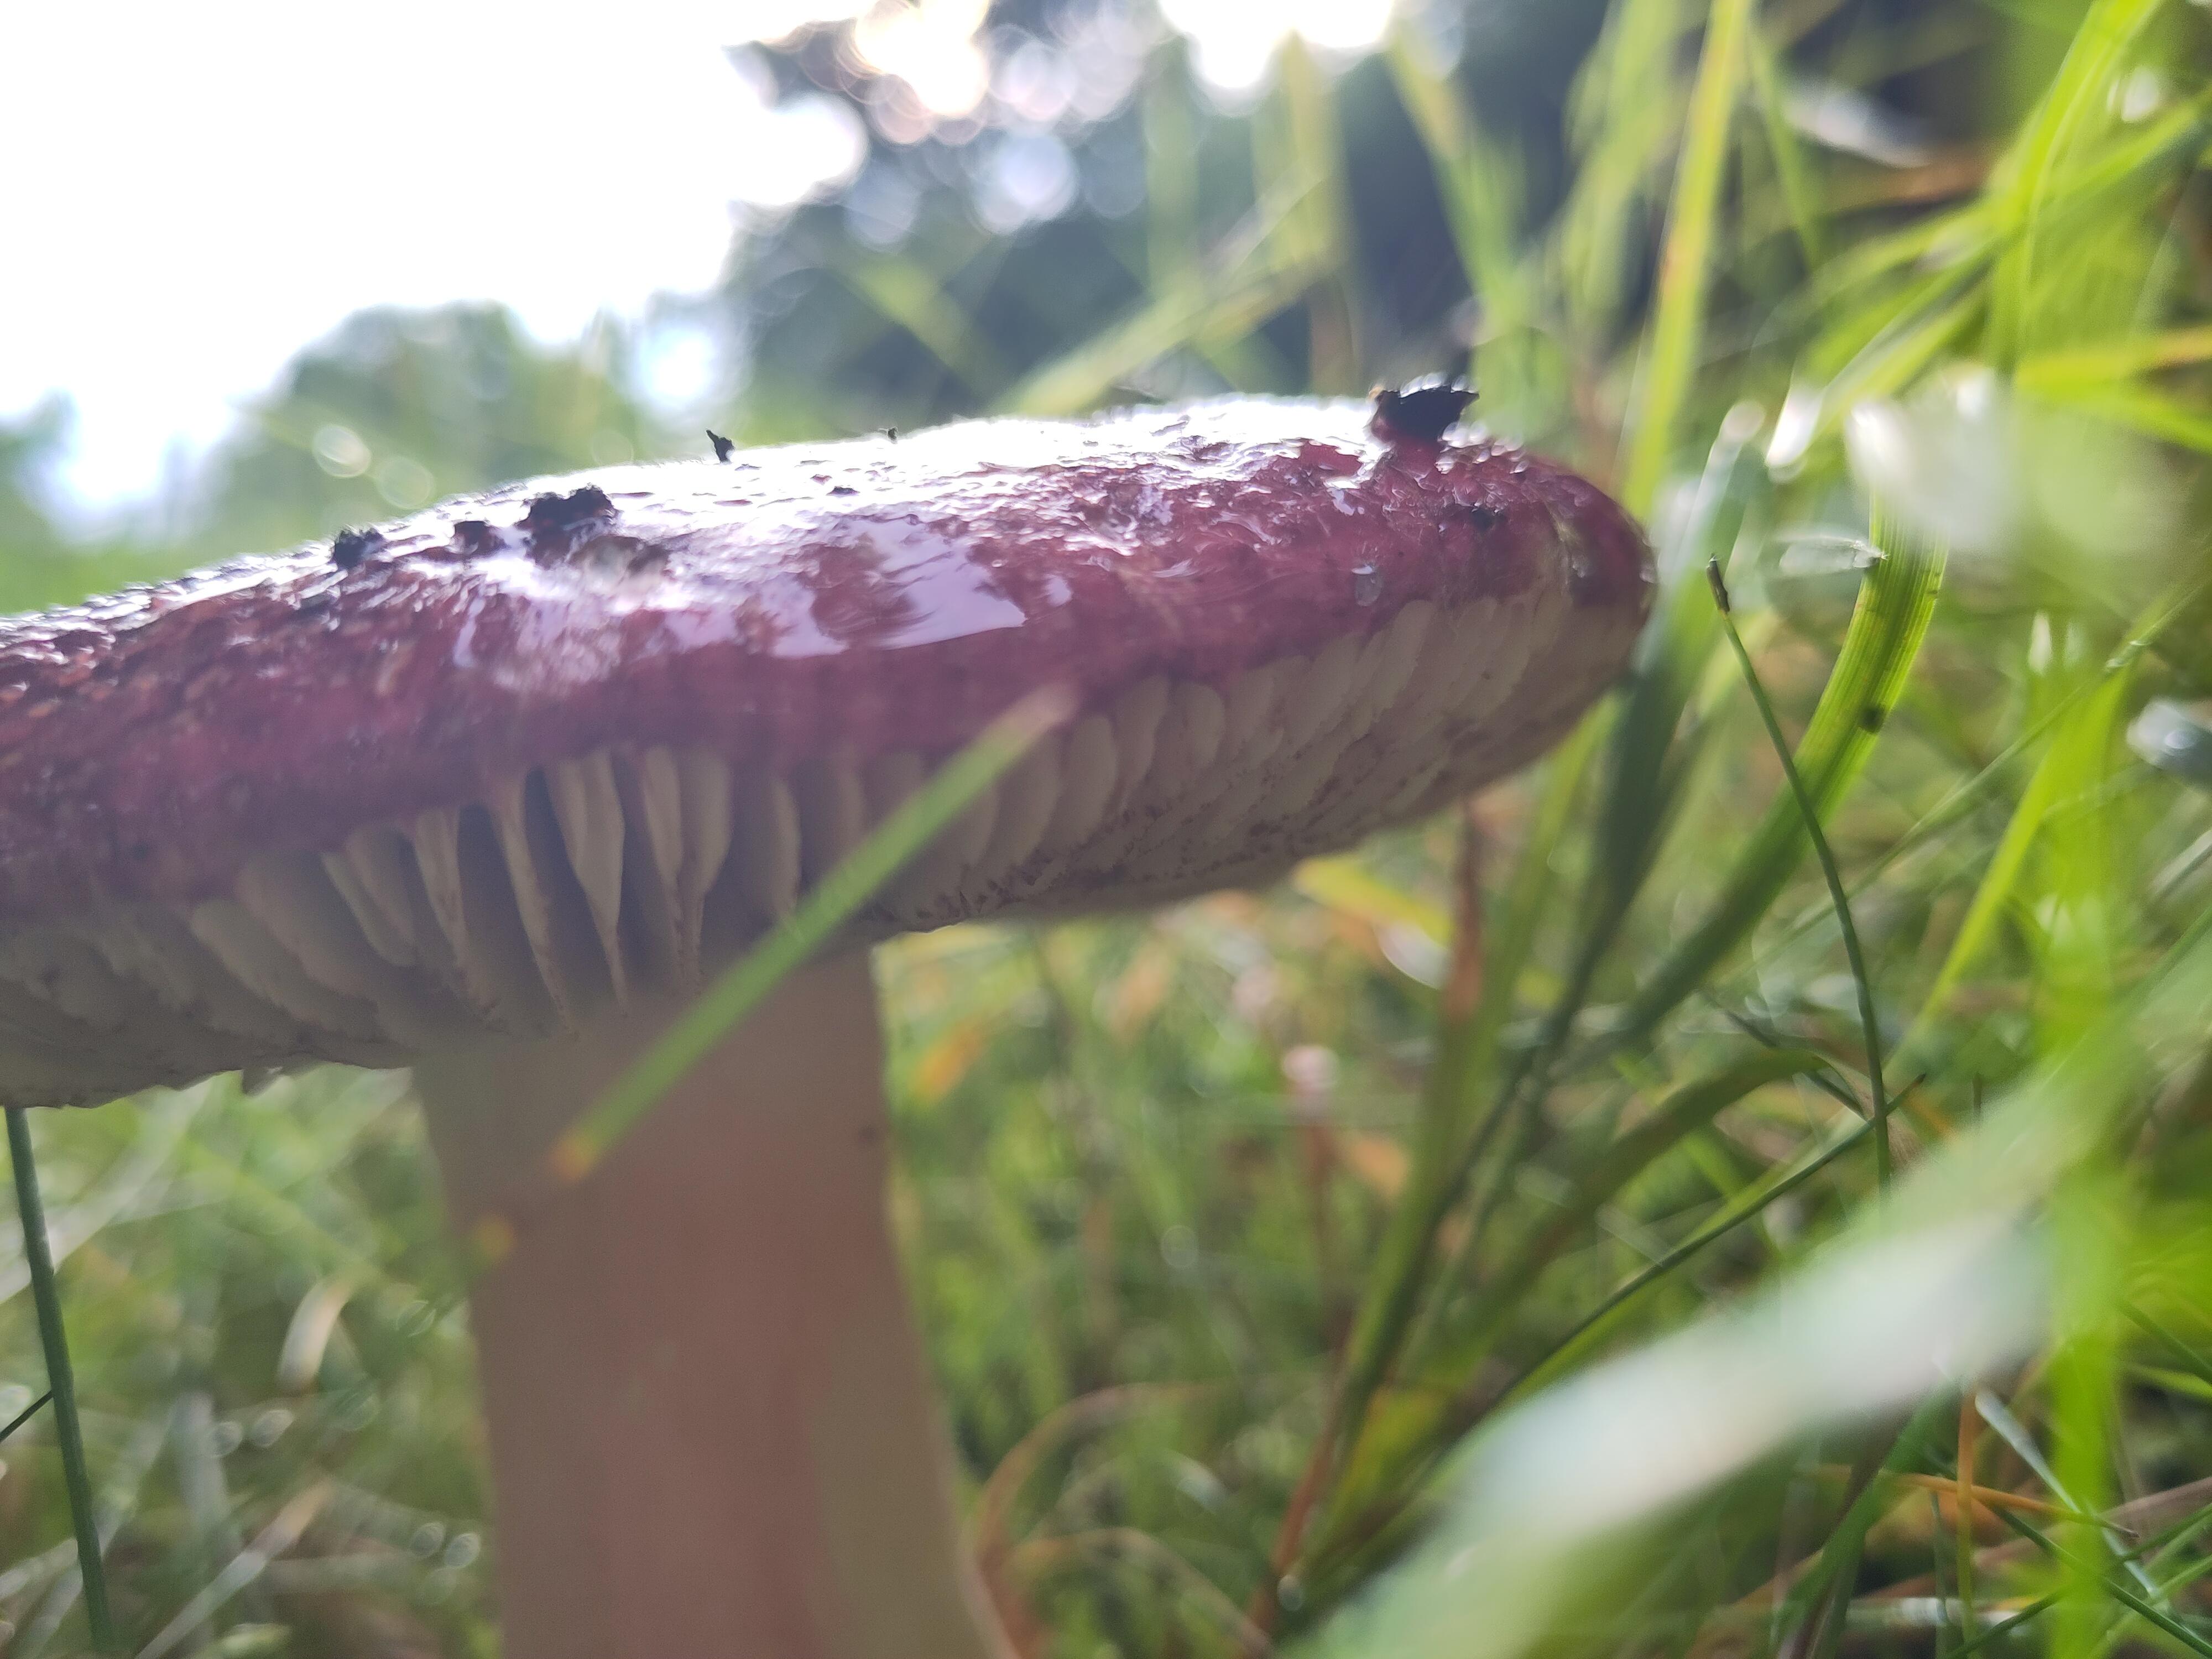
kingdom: Fungi
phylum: Basidiomycota
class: Agaricomycetes
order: Russulales
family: Russulaceae
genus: Russula
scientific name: Russula xerampelina
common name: hummer-skørhat
